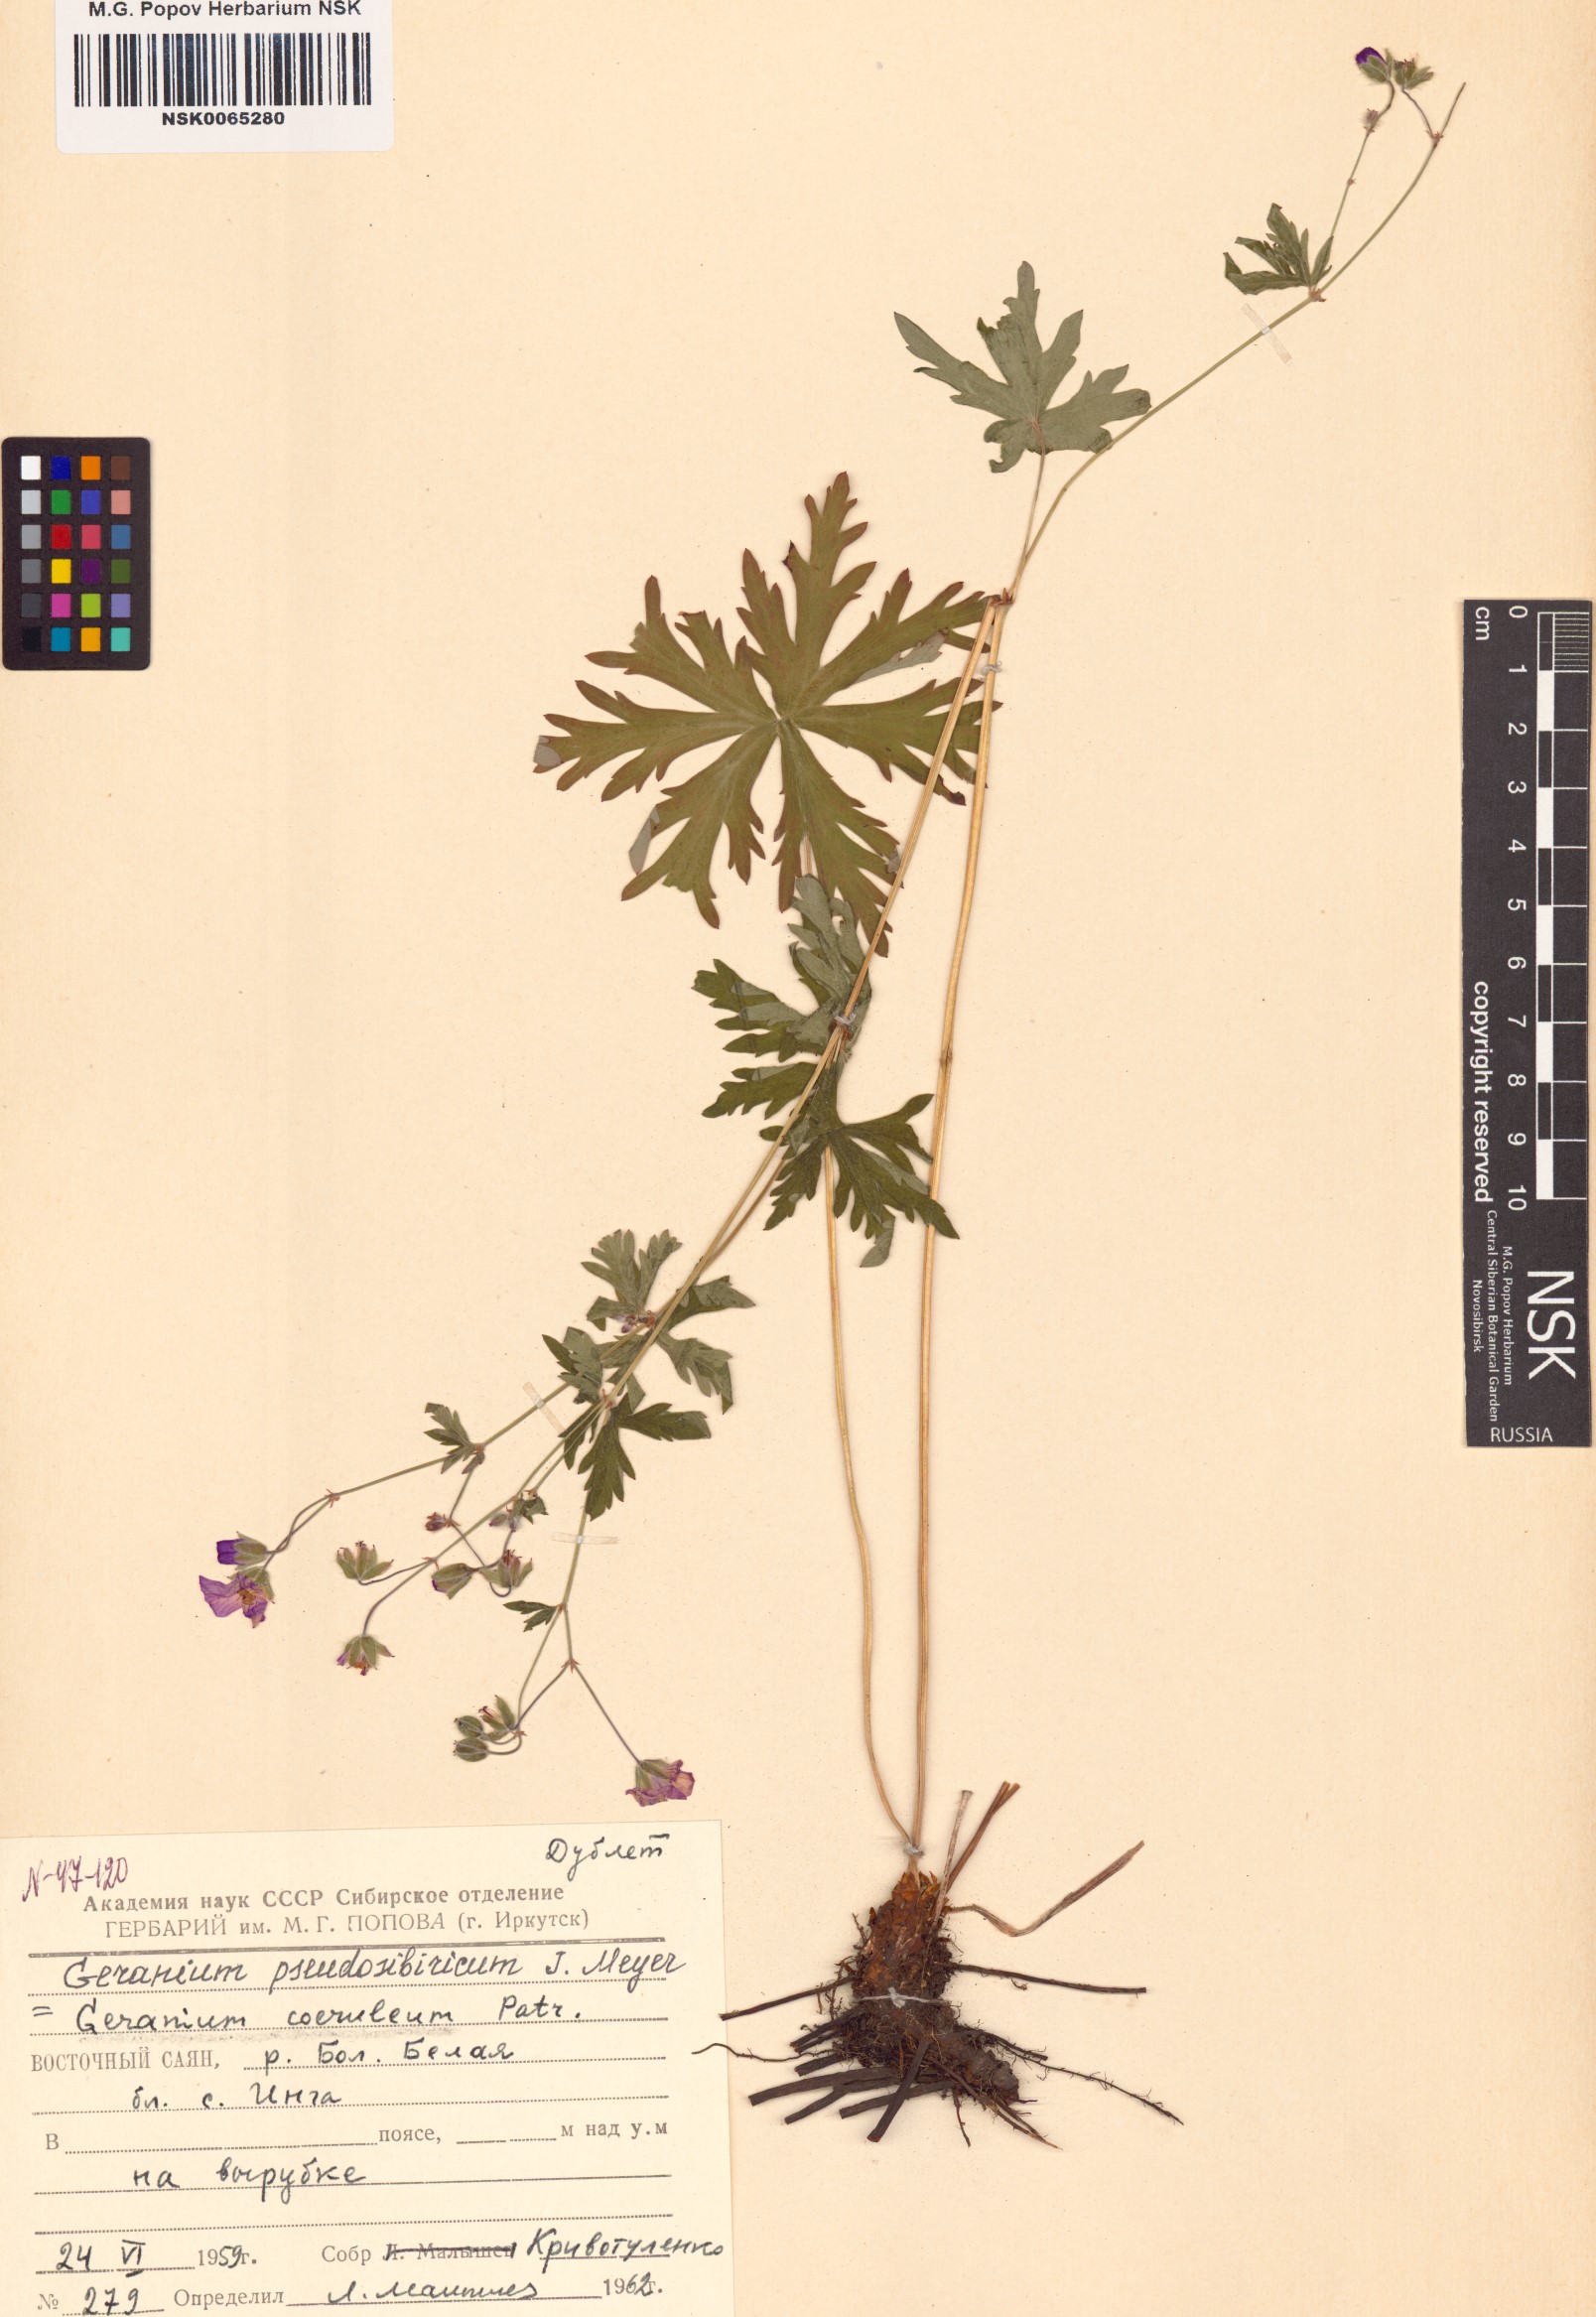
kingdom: Plantae
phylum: Tracheophyta
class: Magnoliopsida
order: Geraniales
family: Geraniaceae
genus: Geranium
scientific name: Geranium pseudosibiricum
